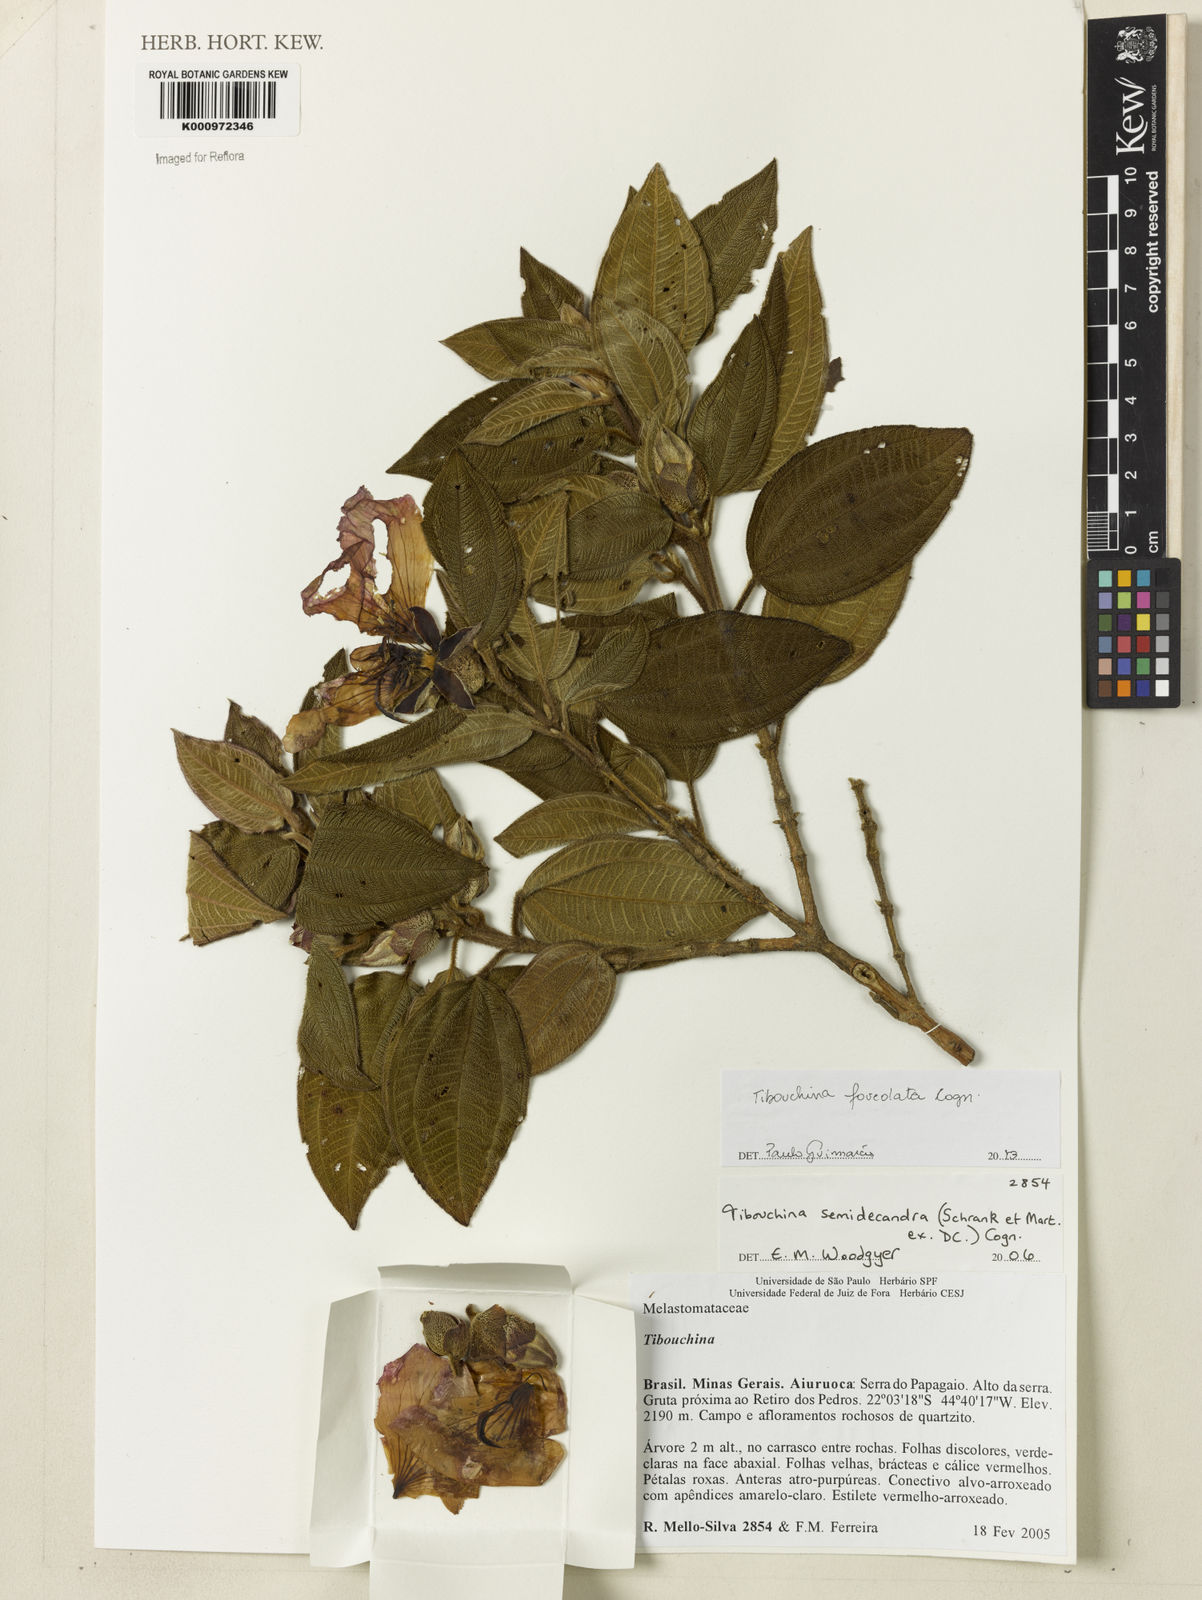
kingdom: Plantae
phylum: Tracheophyta
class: Magnoliopsida
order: Myrtales
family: Melastomataceae
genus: Pleroma
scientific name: Pleroma foveolatum
